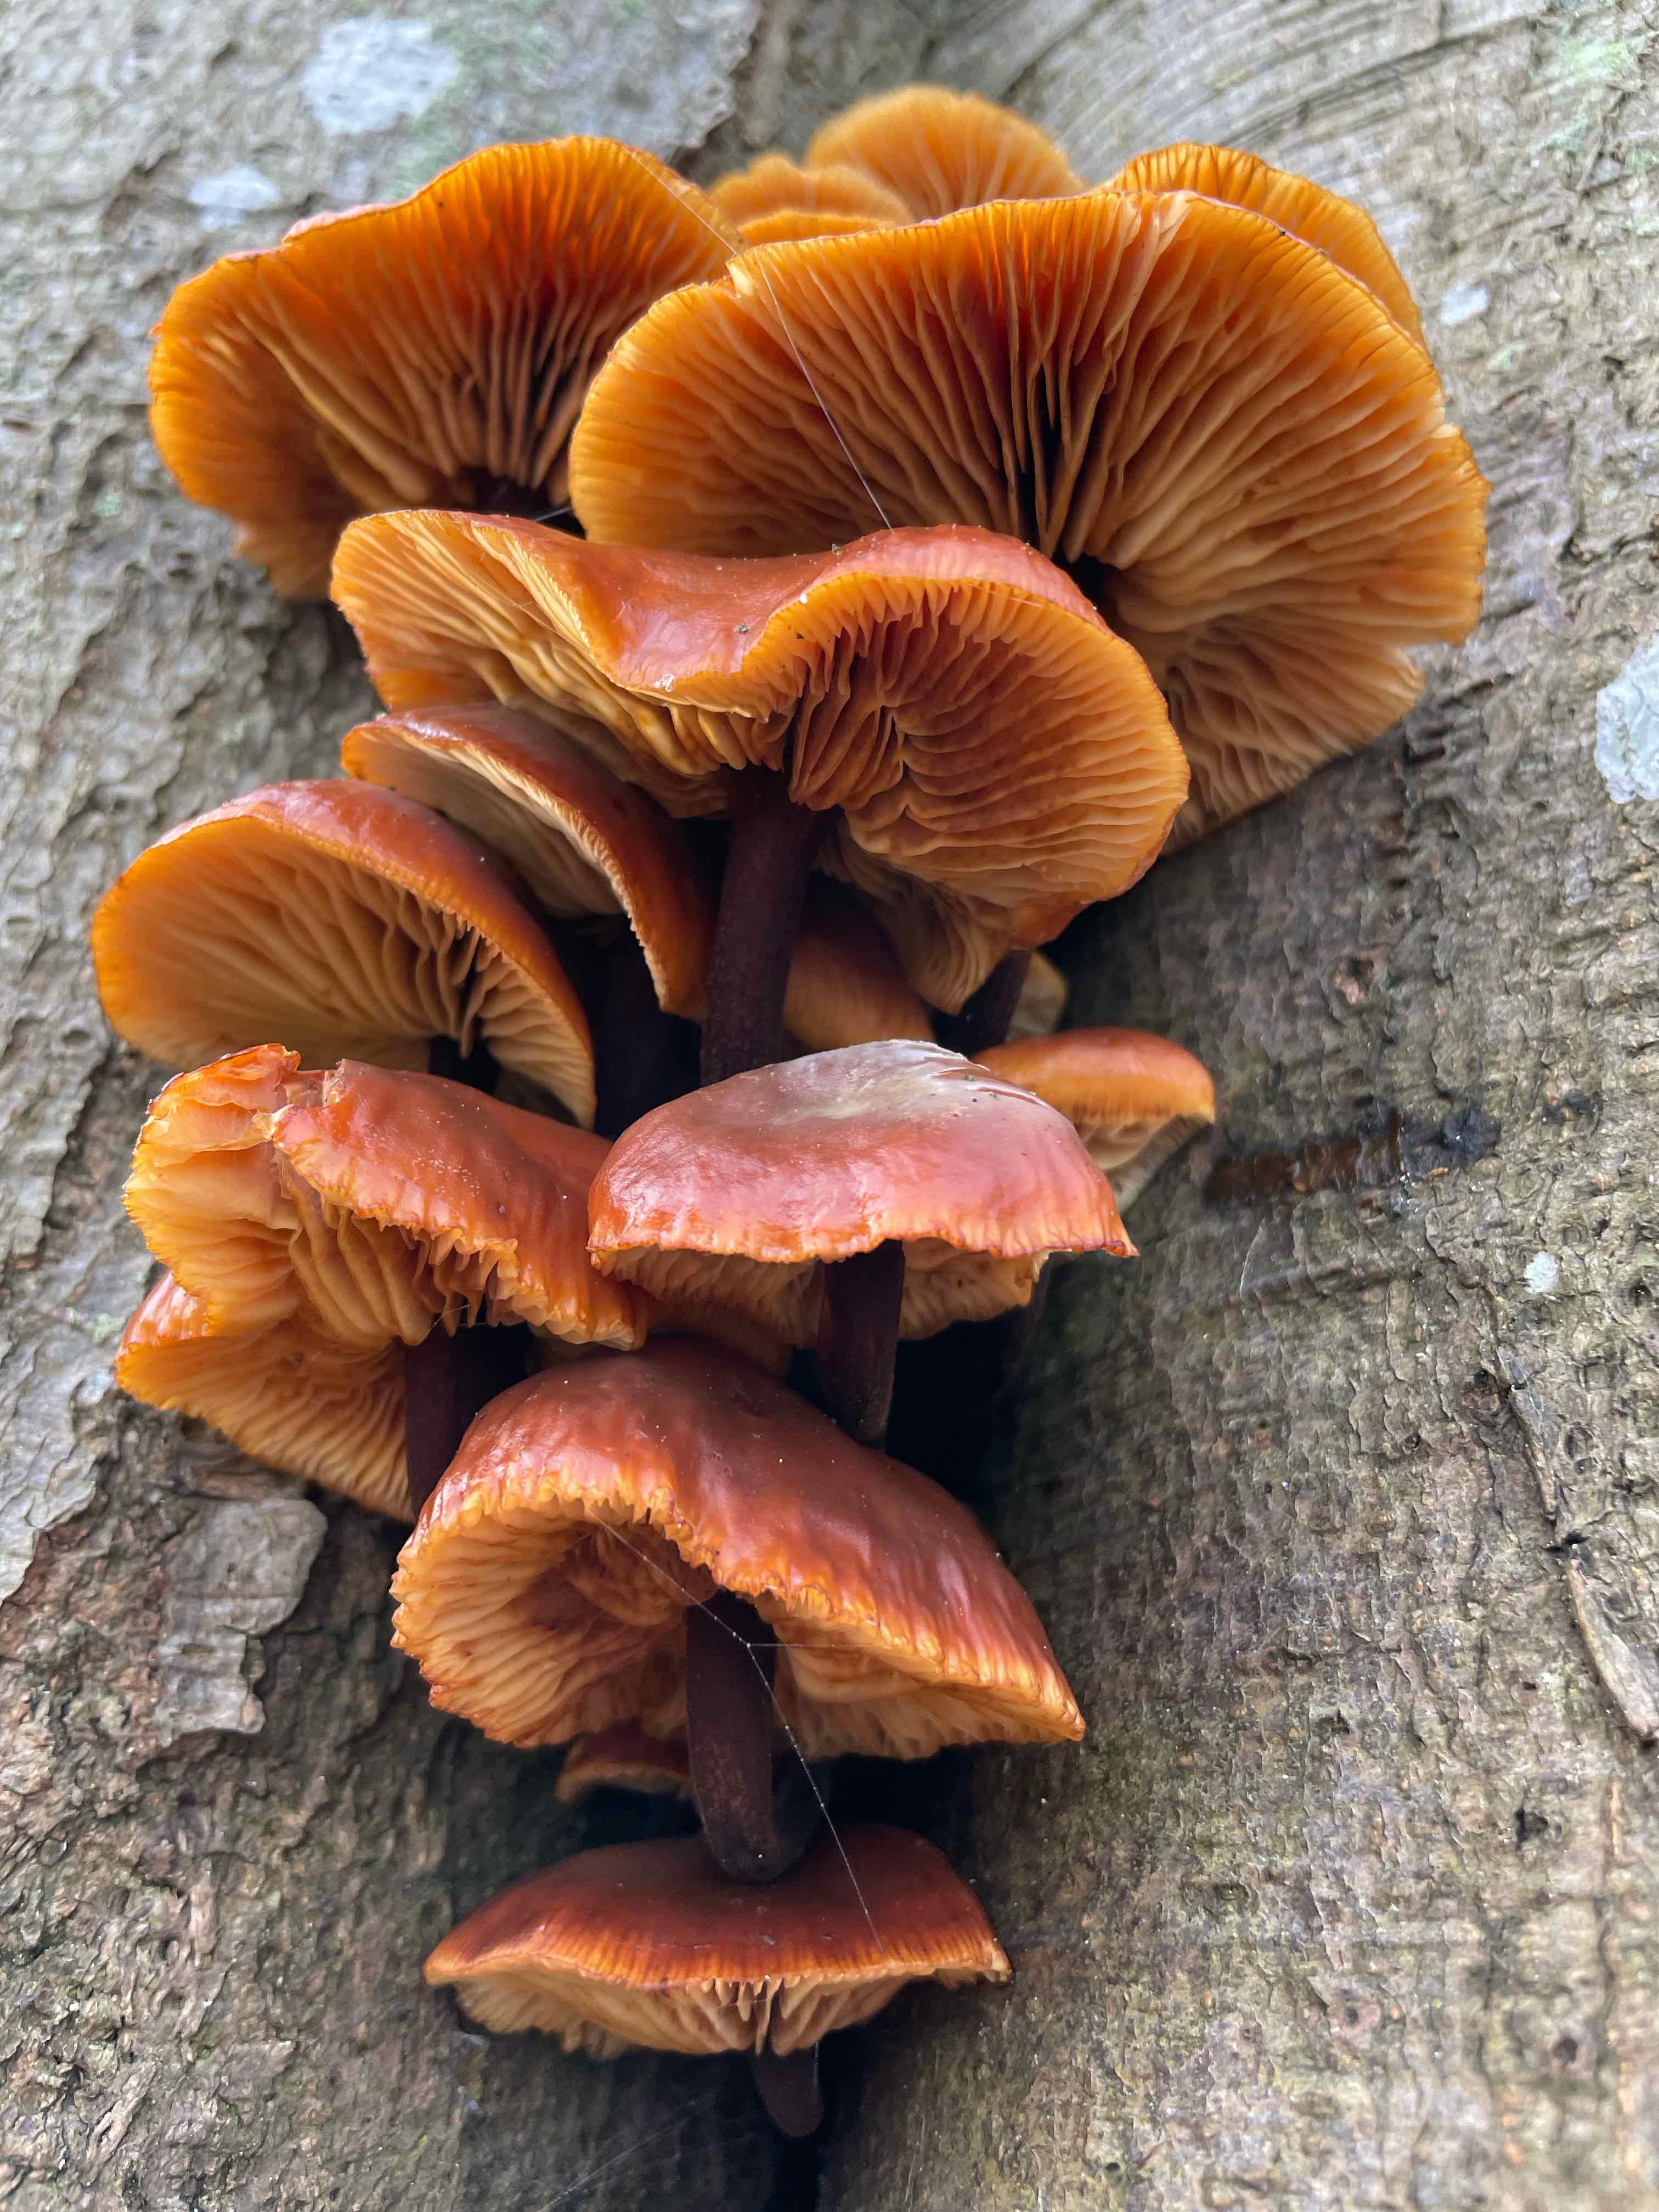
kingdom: Fungi
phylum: Basidiomycota
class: Agaricomycetes
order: Agaricales
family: Physalacriaceae
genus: Flammulina
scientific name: Flammulina velutipes
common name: gul fløjlsfod
